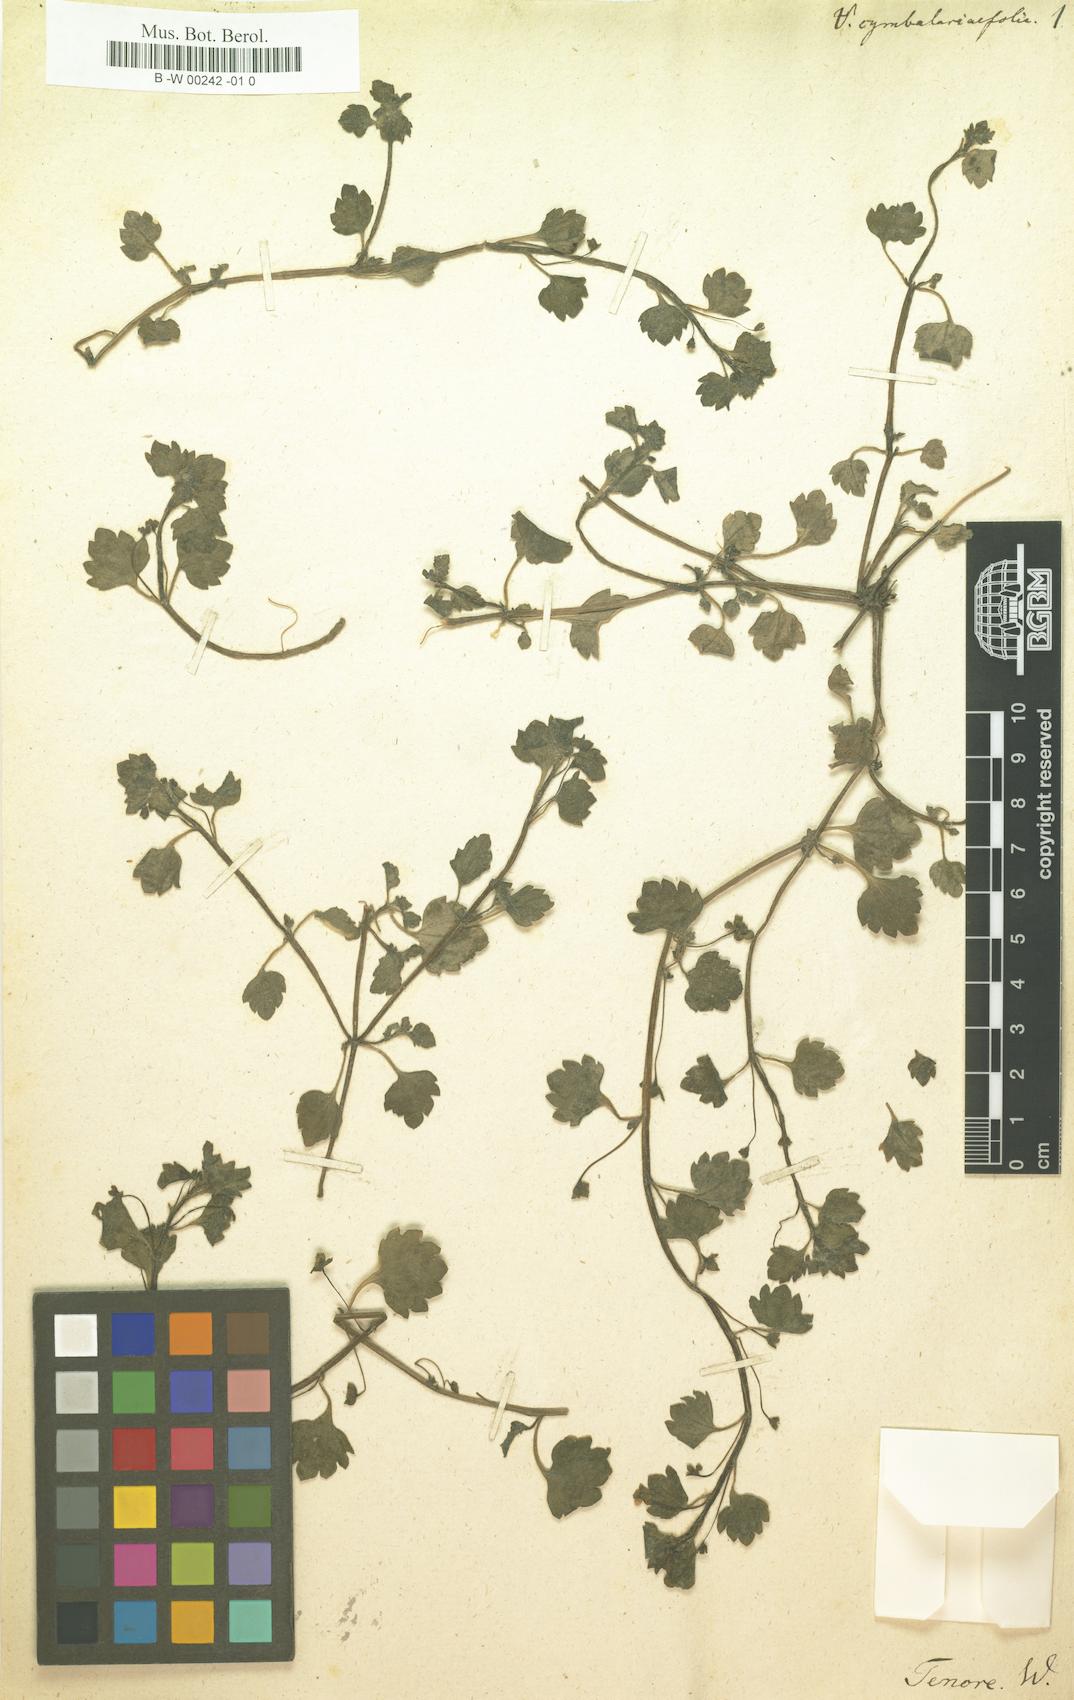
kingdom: Plantae
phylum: Tracheophyta
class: Magnoliopsida
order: Lamiales
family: Plantaginaceae
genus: Veronica
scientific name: Veronica
